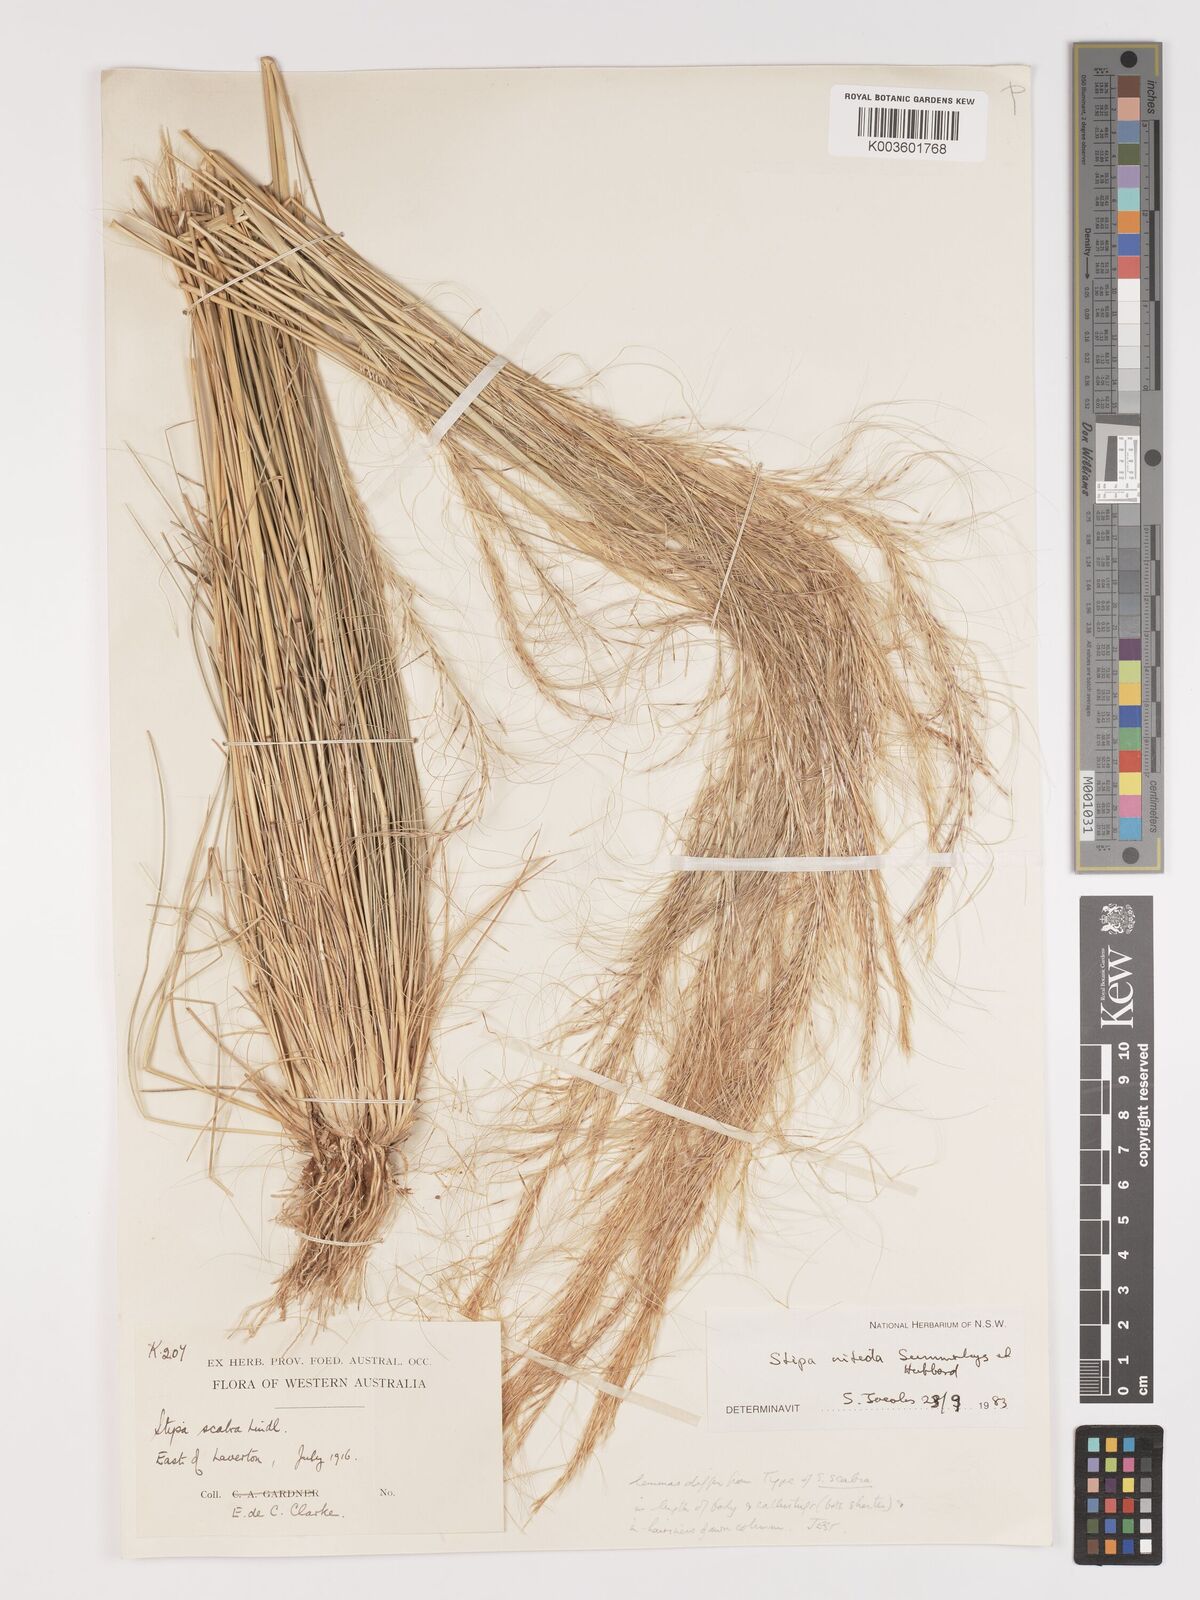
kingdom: Plantae
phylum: Tracheophyta
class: Liliopsida
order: Poales
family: Poaceae
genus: Austrostipa
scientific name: Austrostipa nitida
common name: Balcarra grass
